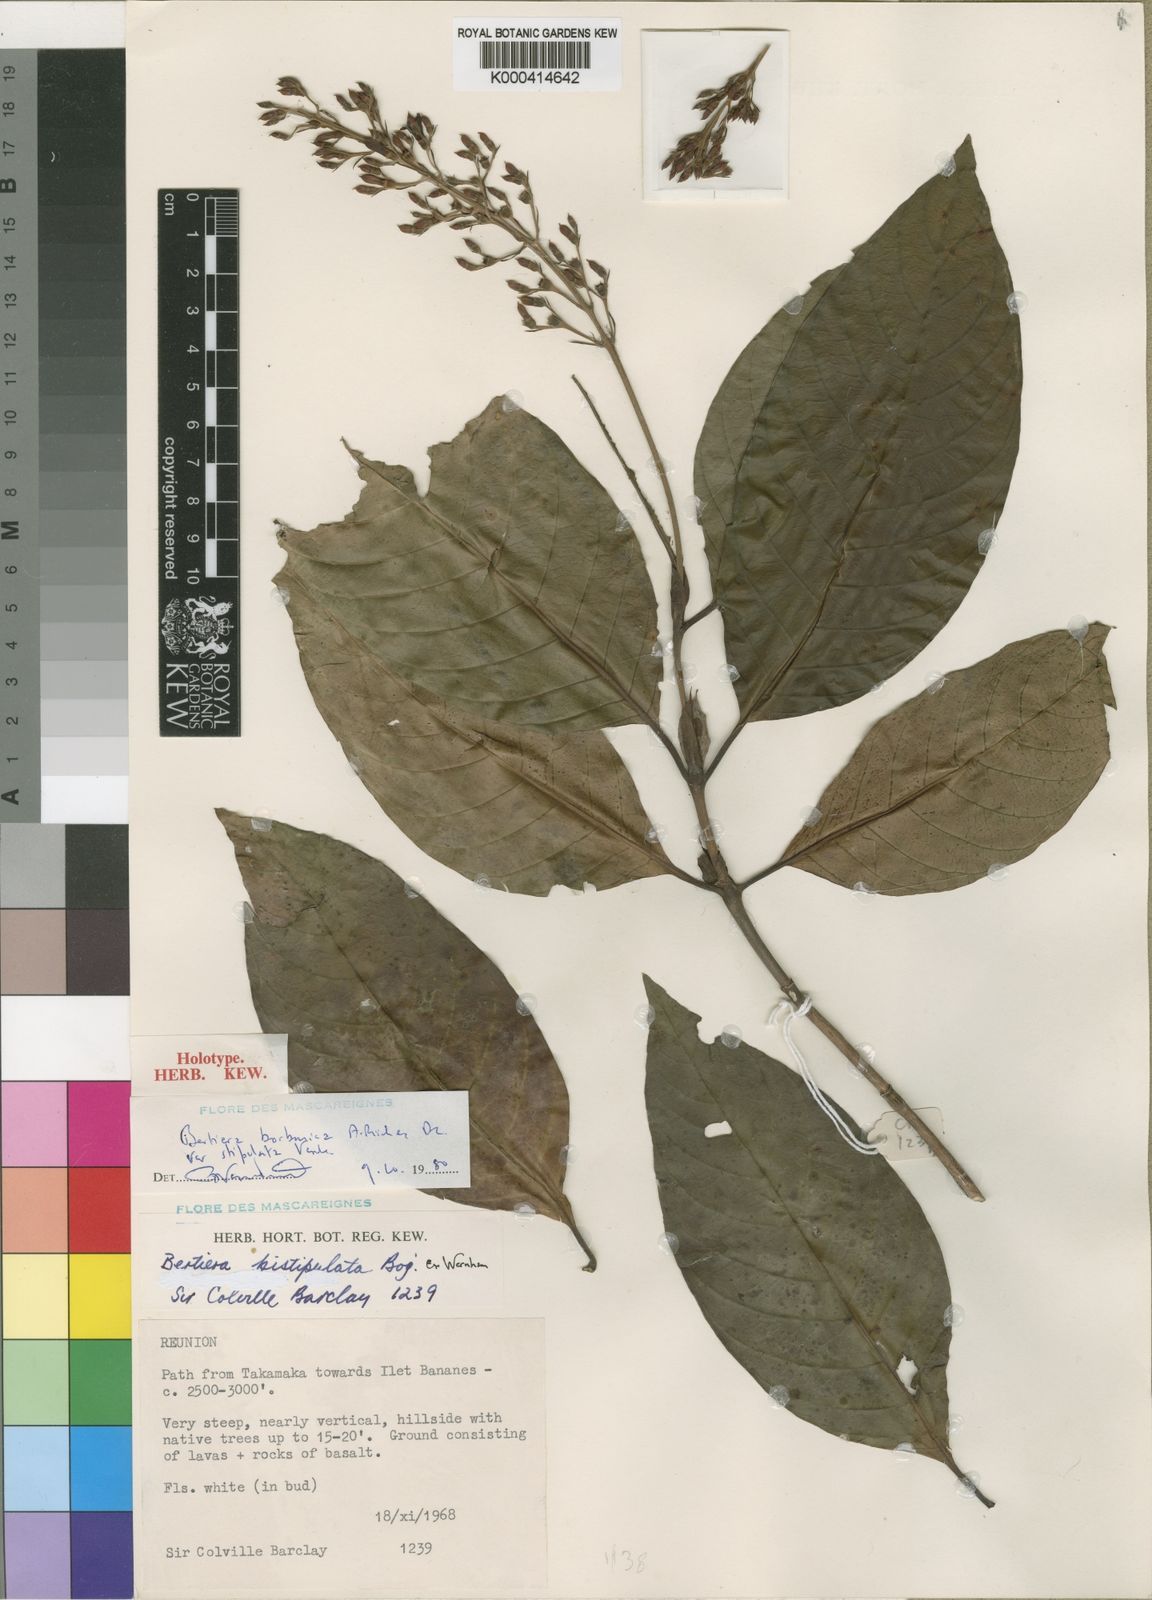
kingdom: Plantae
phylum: Tracheophyta
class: Magnoliopsida
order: Gentianales
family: Rubiaceae
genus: Bertiera
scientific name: Bertiera borbonica
